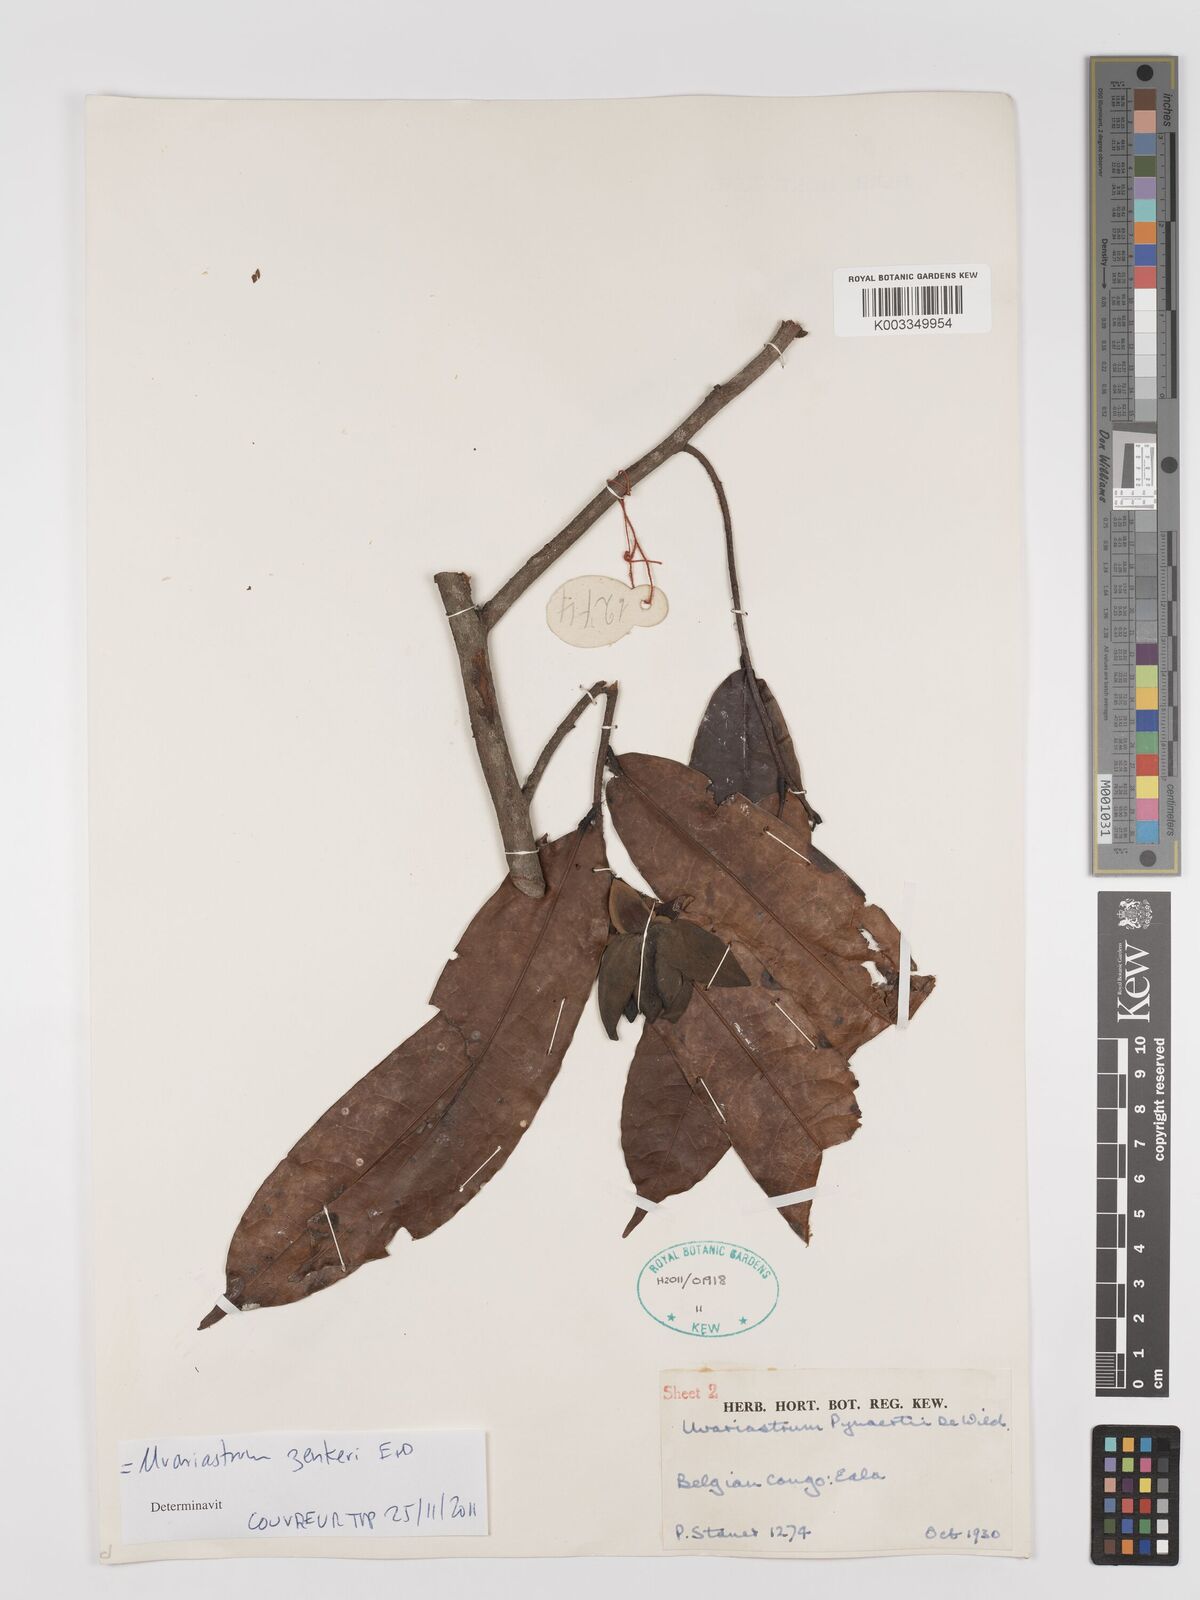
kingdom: Plantae
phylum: Tracheophyta
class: Magnoliopsida
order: Magnoliales
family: Annonaceae
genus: Uvariastrum
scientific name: Uvariastrum zenkeri
